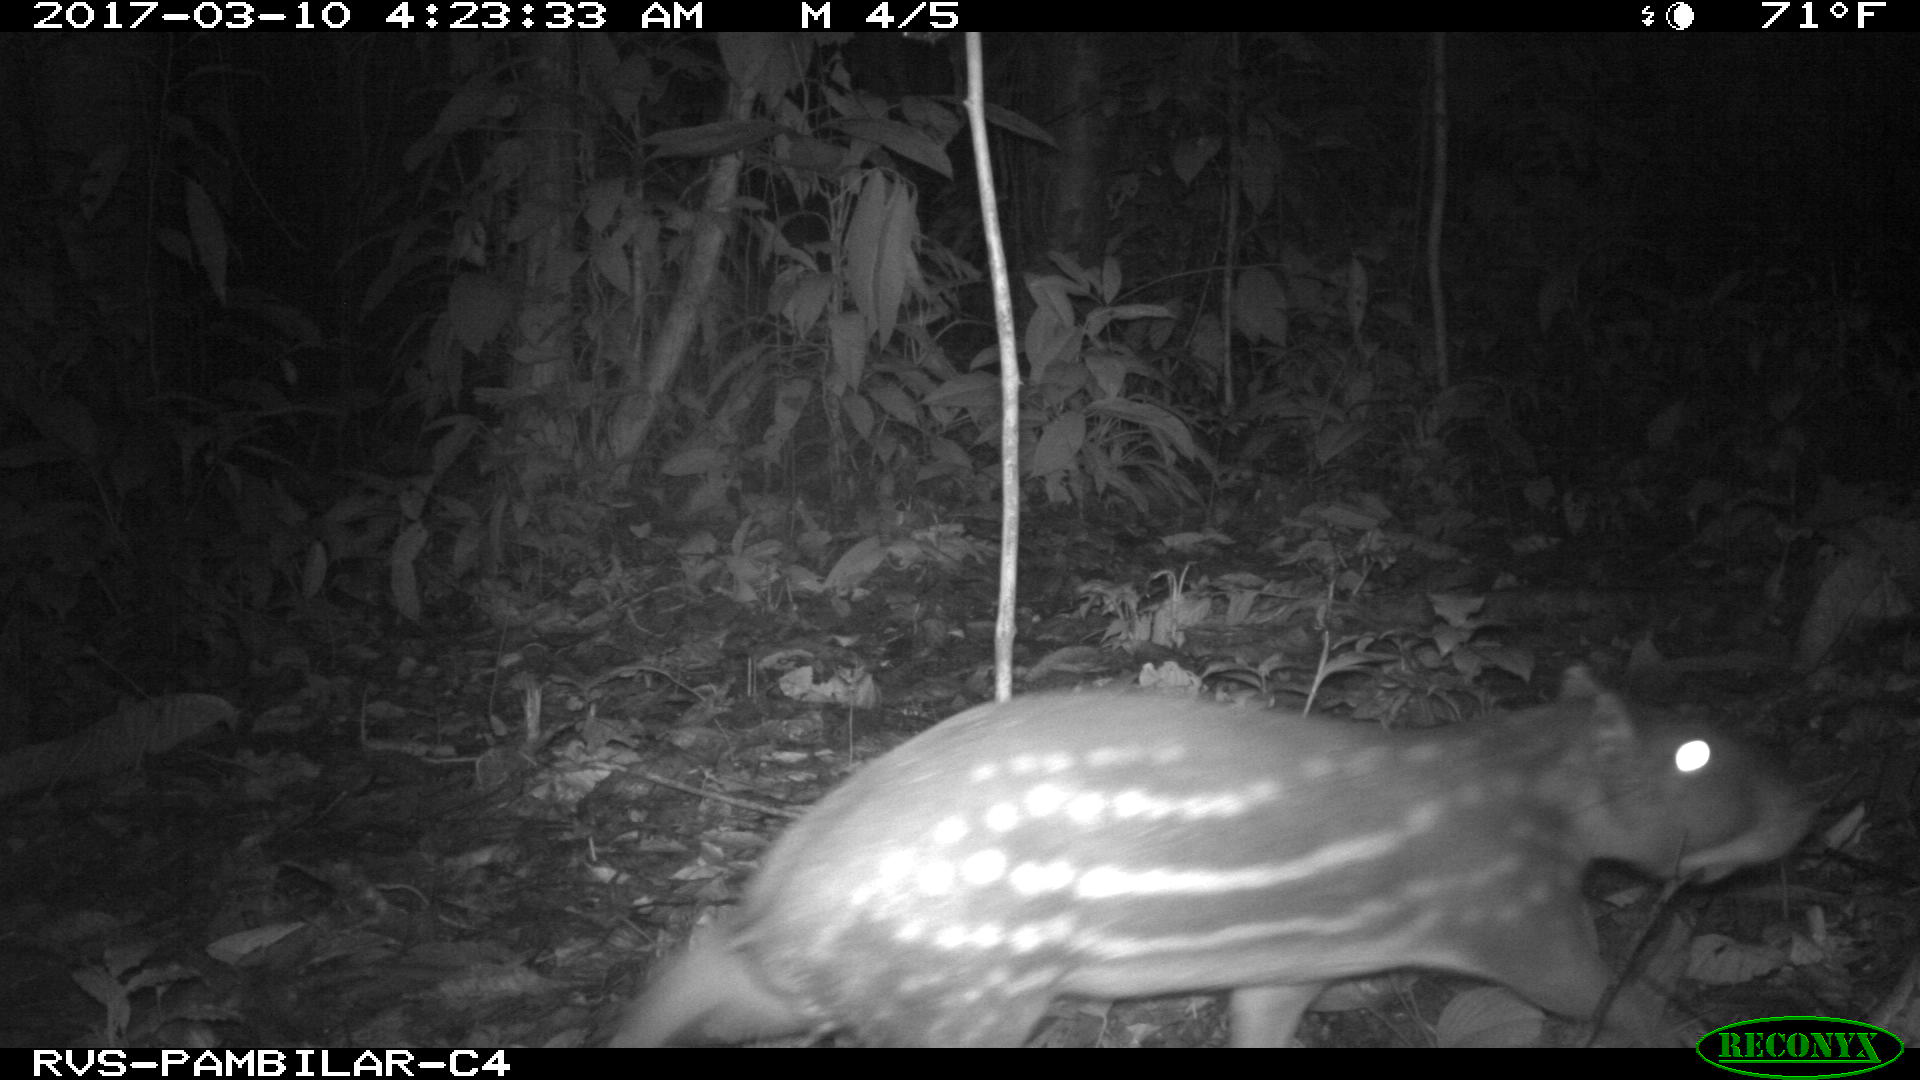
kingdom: Animalia
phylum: Chordata
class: Mammalia
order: Rodentia
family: Cuniculidae
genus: Cuniculus
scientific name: Cuniculus paca
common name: Lowland paca
